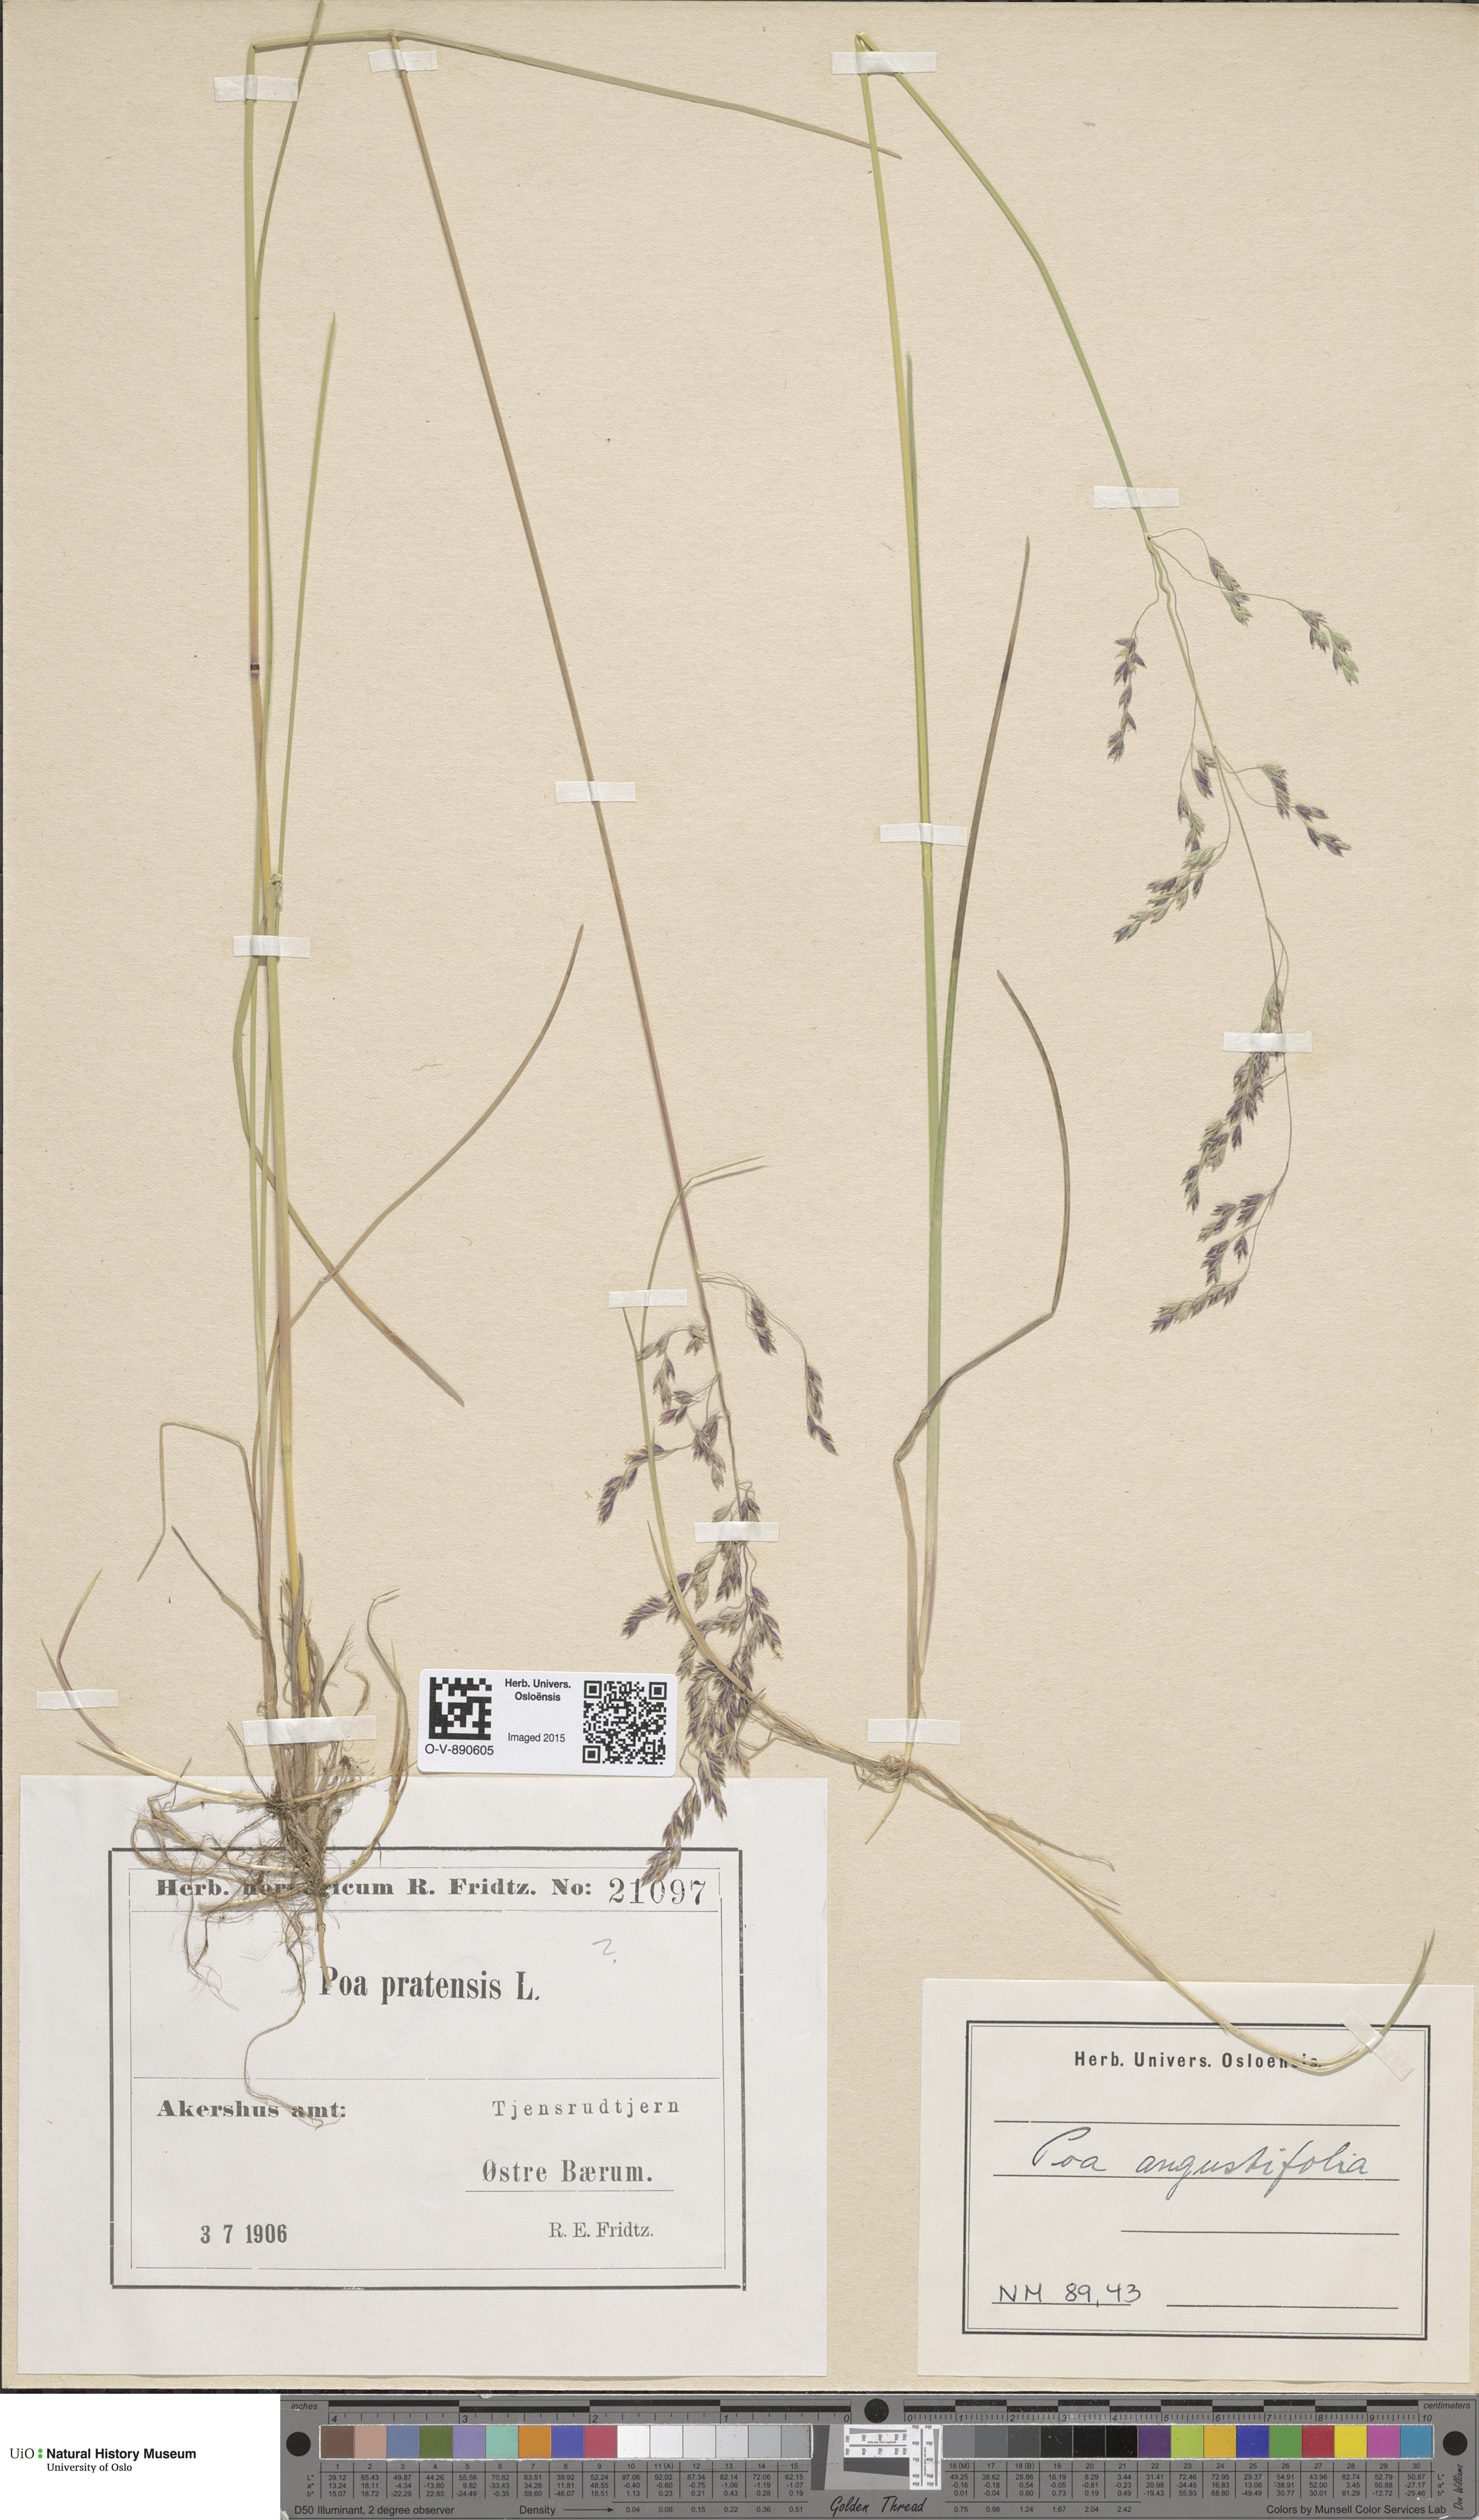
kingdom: Plantae
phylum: Tracheophyta
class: Liliopsida
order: Poales
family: Poaceae
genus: Poa
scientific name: Poa angustifolia
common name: Narrow-leaved meadow-grass
